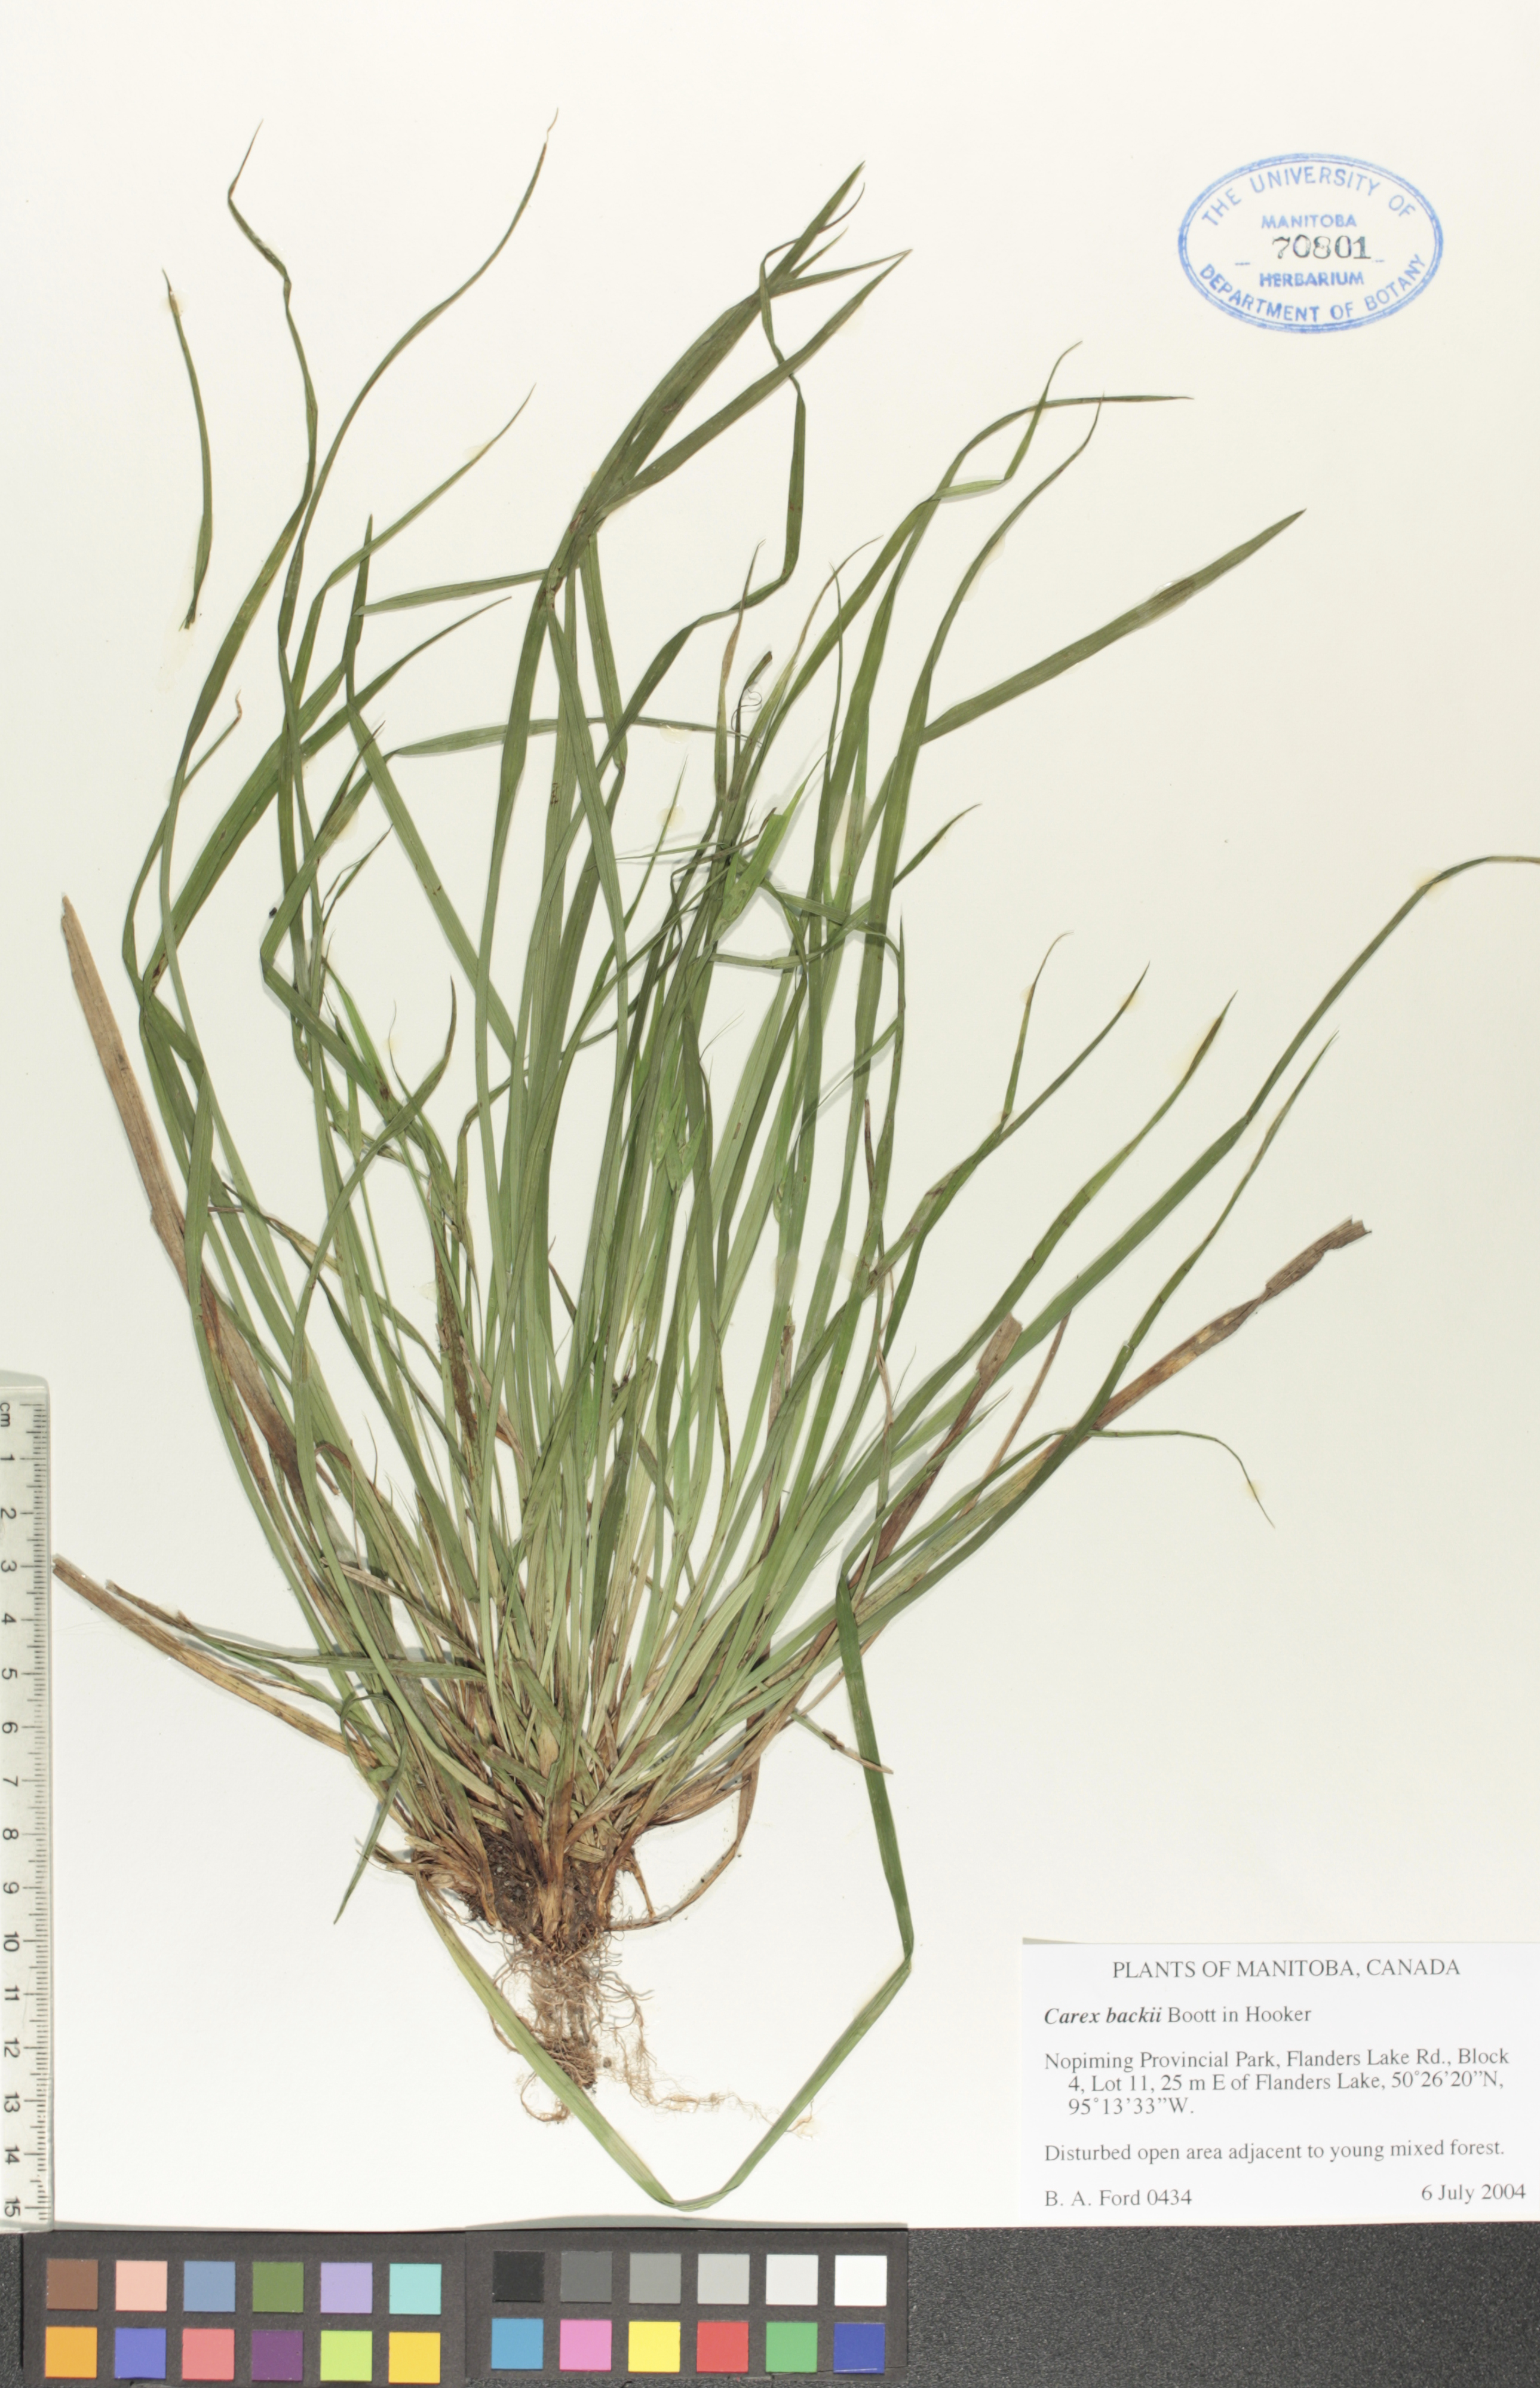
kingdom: Plantae
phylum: Tracheophyta
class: Liliopsida
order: Poales
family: Cyperaceae
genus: Carex
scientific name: Carex backii
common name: Back's sedge
